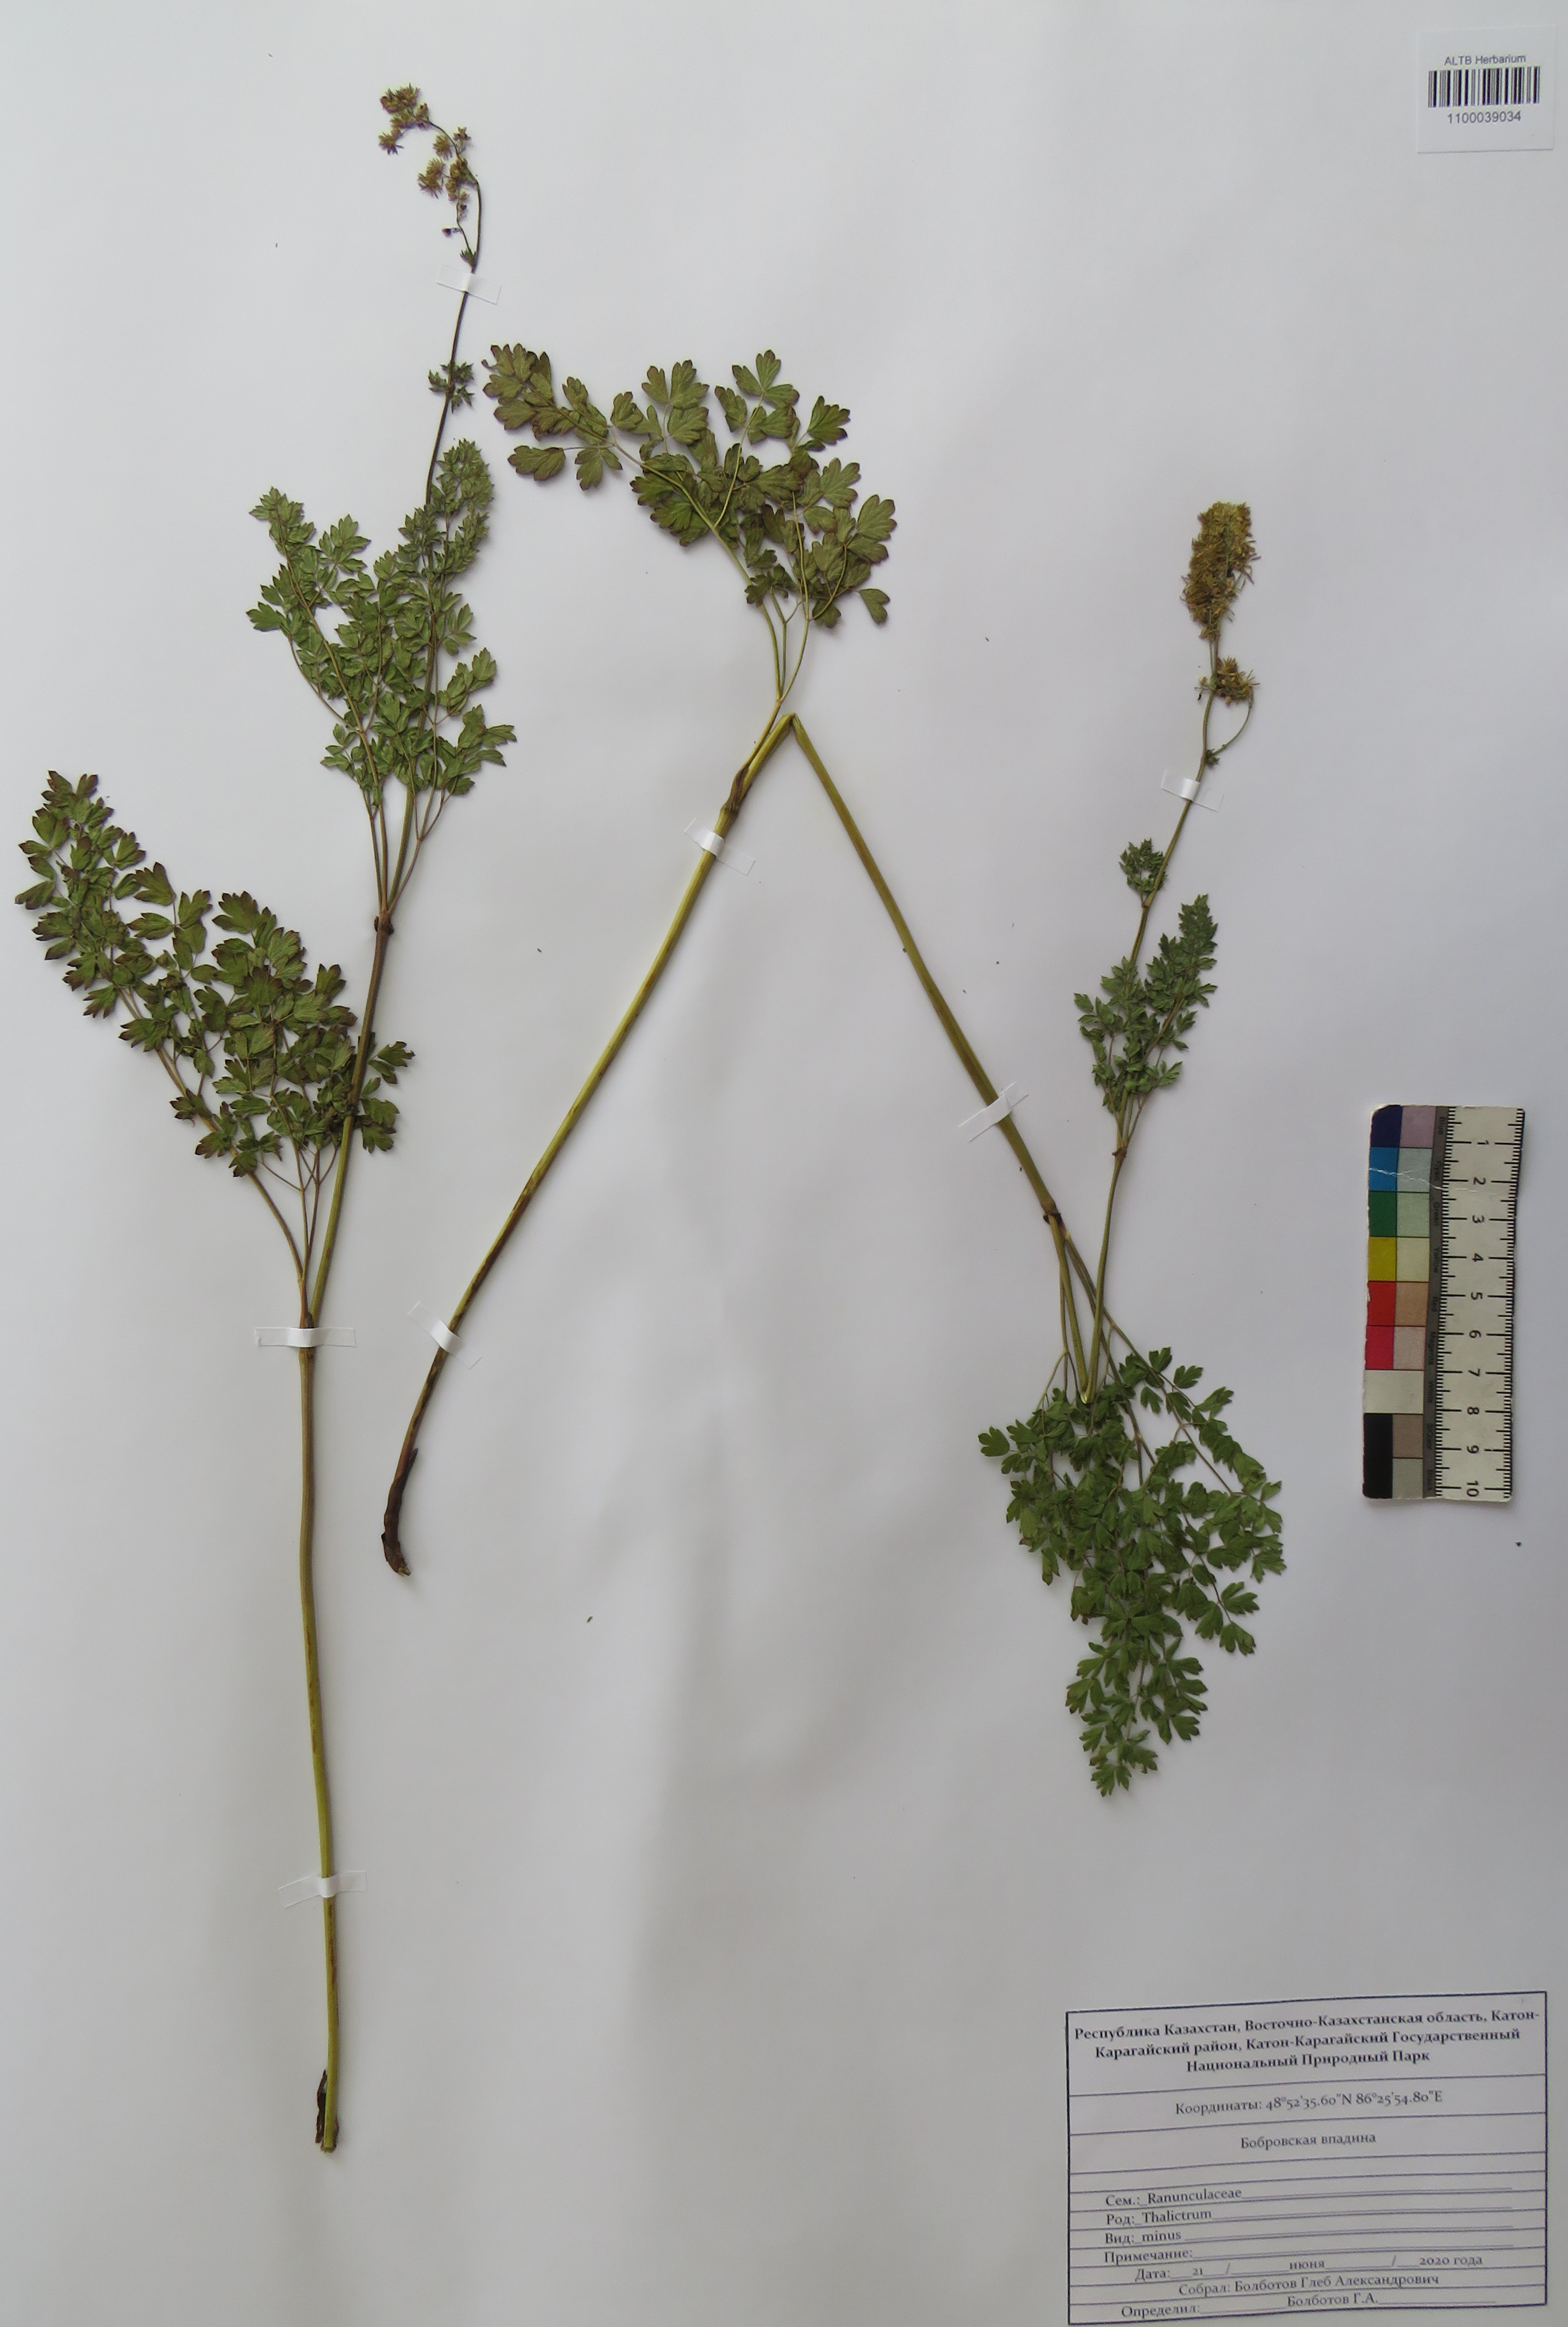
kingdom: Plantae
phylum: Tracheophyta
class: Magnoliopsida
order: Ranunculales
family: Ranunculaceae
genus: Thalictrum
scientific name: Thalictrum minus
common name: Lesser meadow-rue
